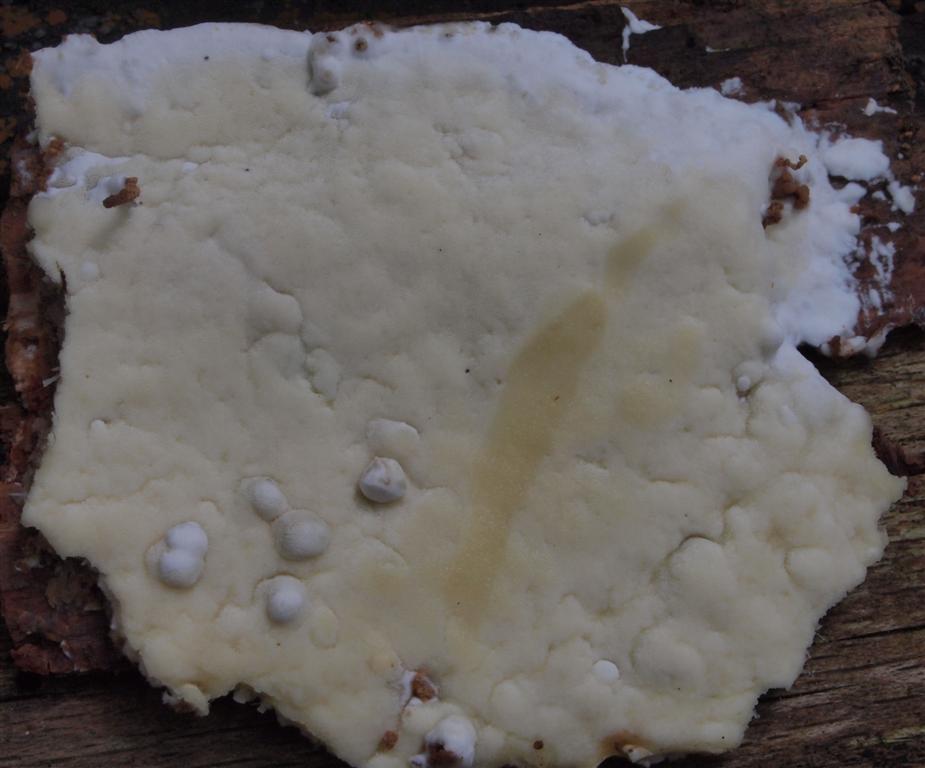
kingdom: Fungi
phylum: Basidiomycota
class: Agaricomycetes
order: Polyporales
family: Irpicaceae
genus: Gloeoporus
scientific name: Gloeoporus pannocinctus
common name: grøngul foldporesvamp
